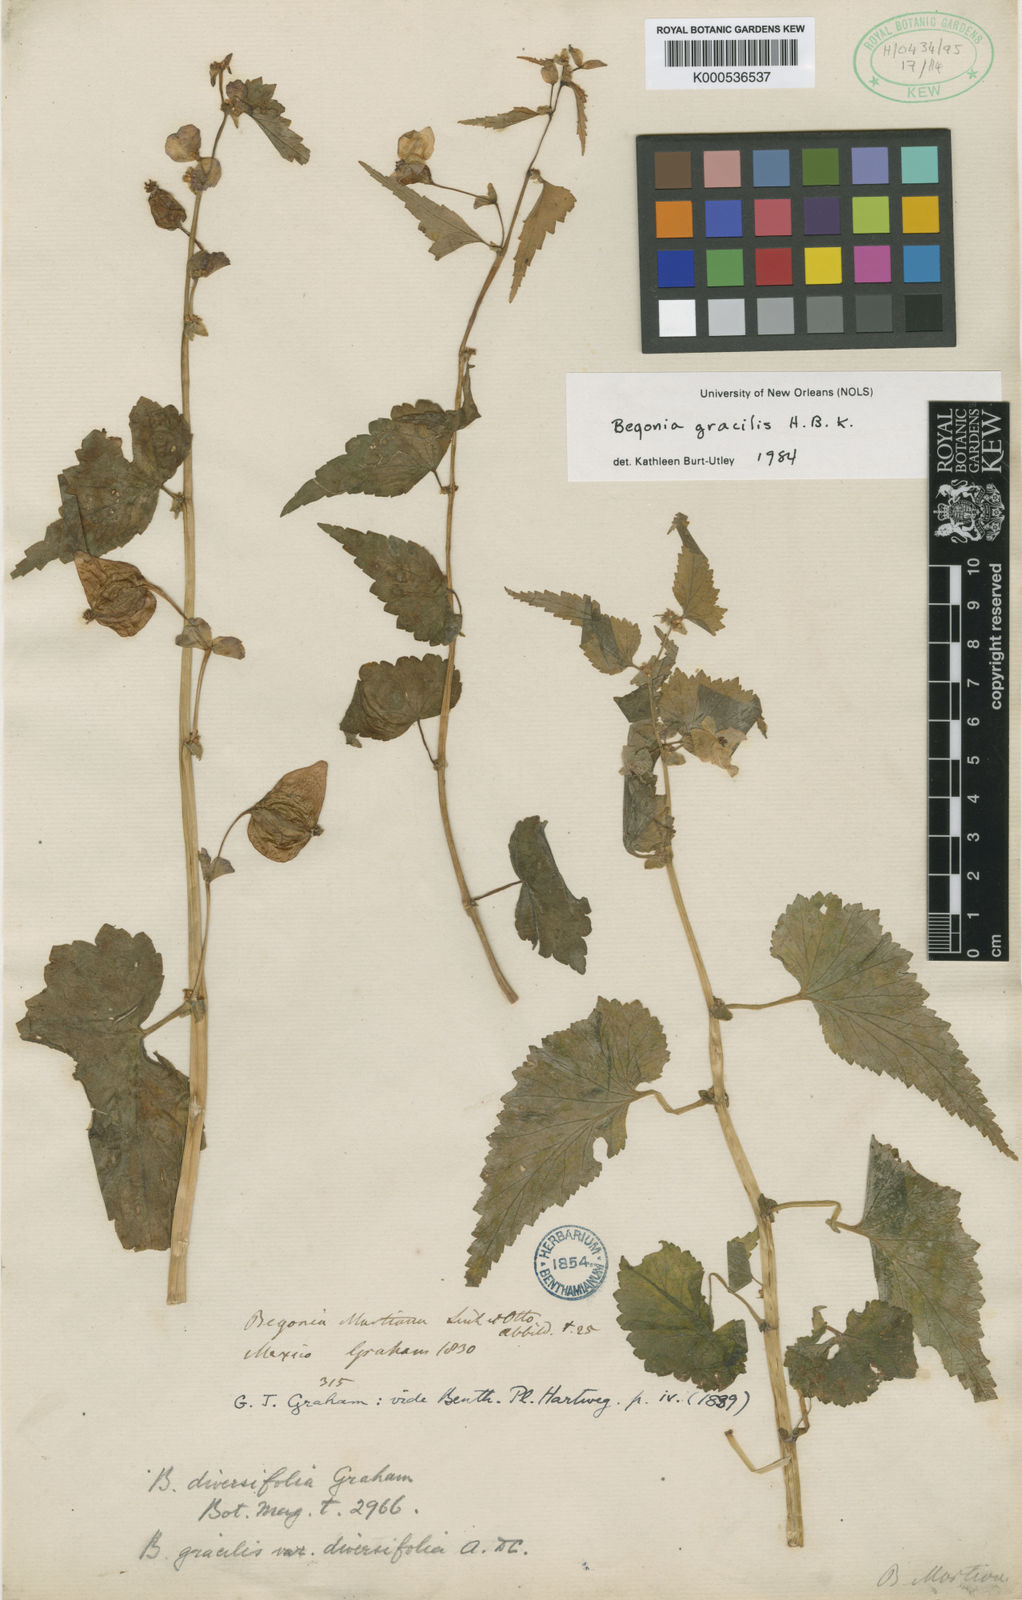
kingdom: Plantae
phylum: Tracheophyta
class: Magnoliopsida
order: Cucurbitales
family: Begoniaceae
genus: Begonia
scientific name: Begonia gracilis
